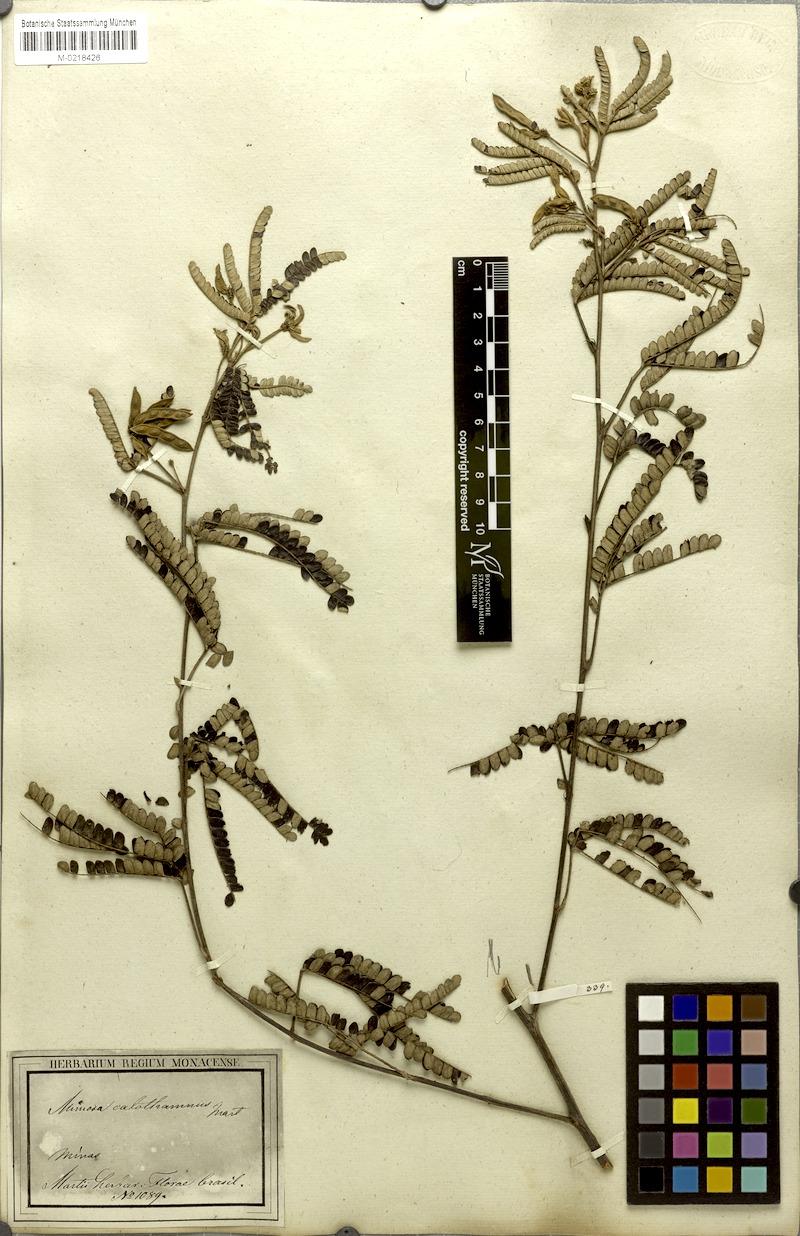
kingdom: Plantae
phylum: Tracheophyta
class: Magnoliopsida
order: Fabales
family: Fabaceae
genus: Mimosa
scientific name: Mimosa aurivillus
